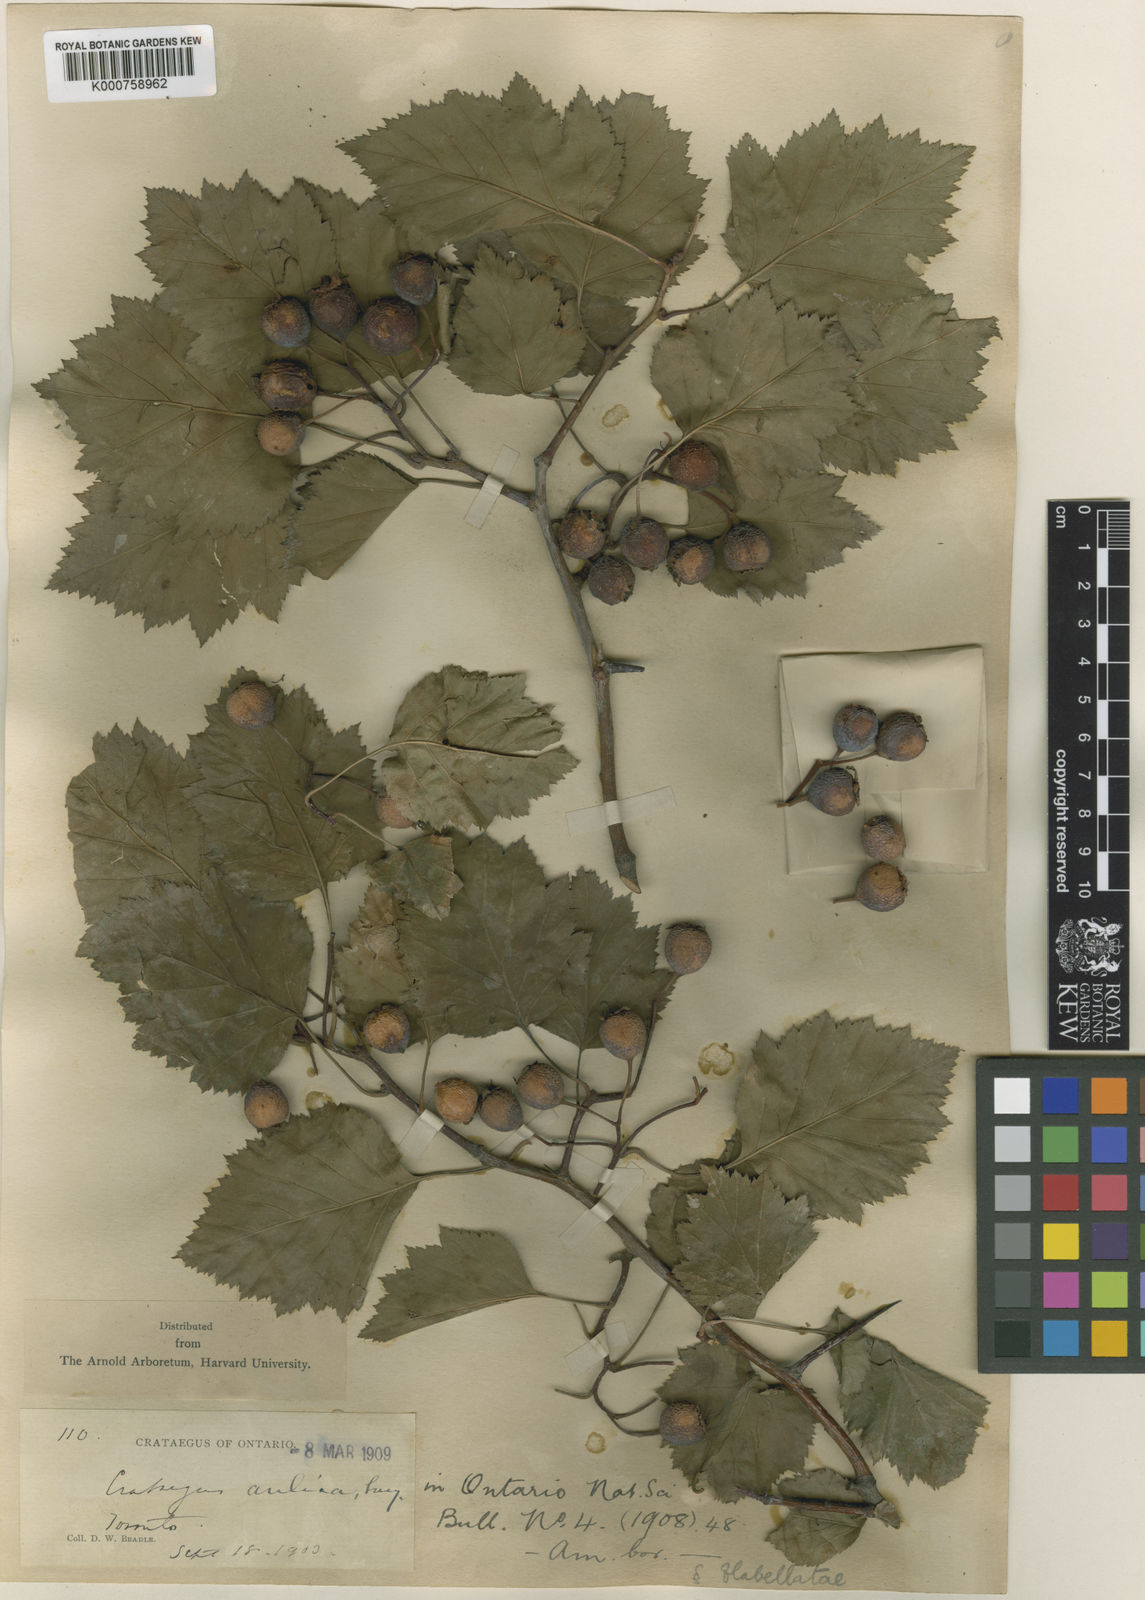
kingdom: Plantae
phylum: Tracheophyta
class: Magnoliopsida
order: Rosales
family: Rosaceae
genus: Crataegus
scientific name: Crataegus coccinea
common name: Scarlet hawthorn
